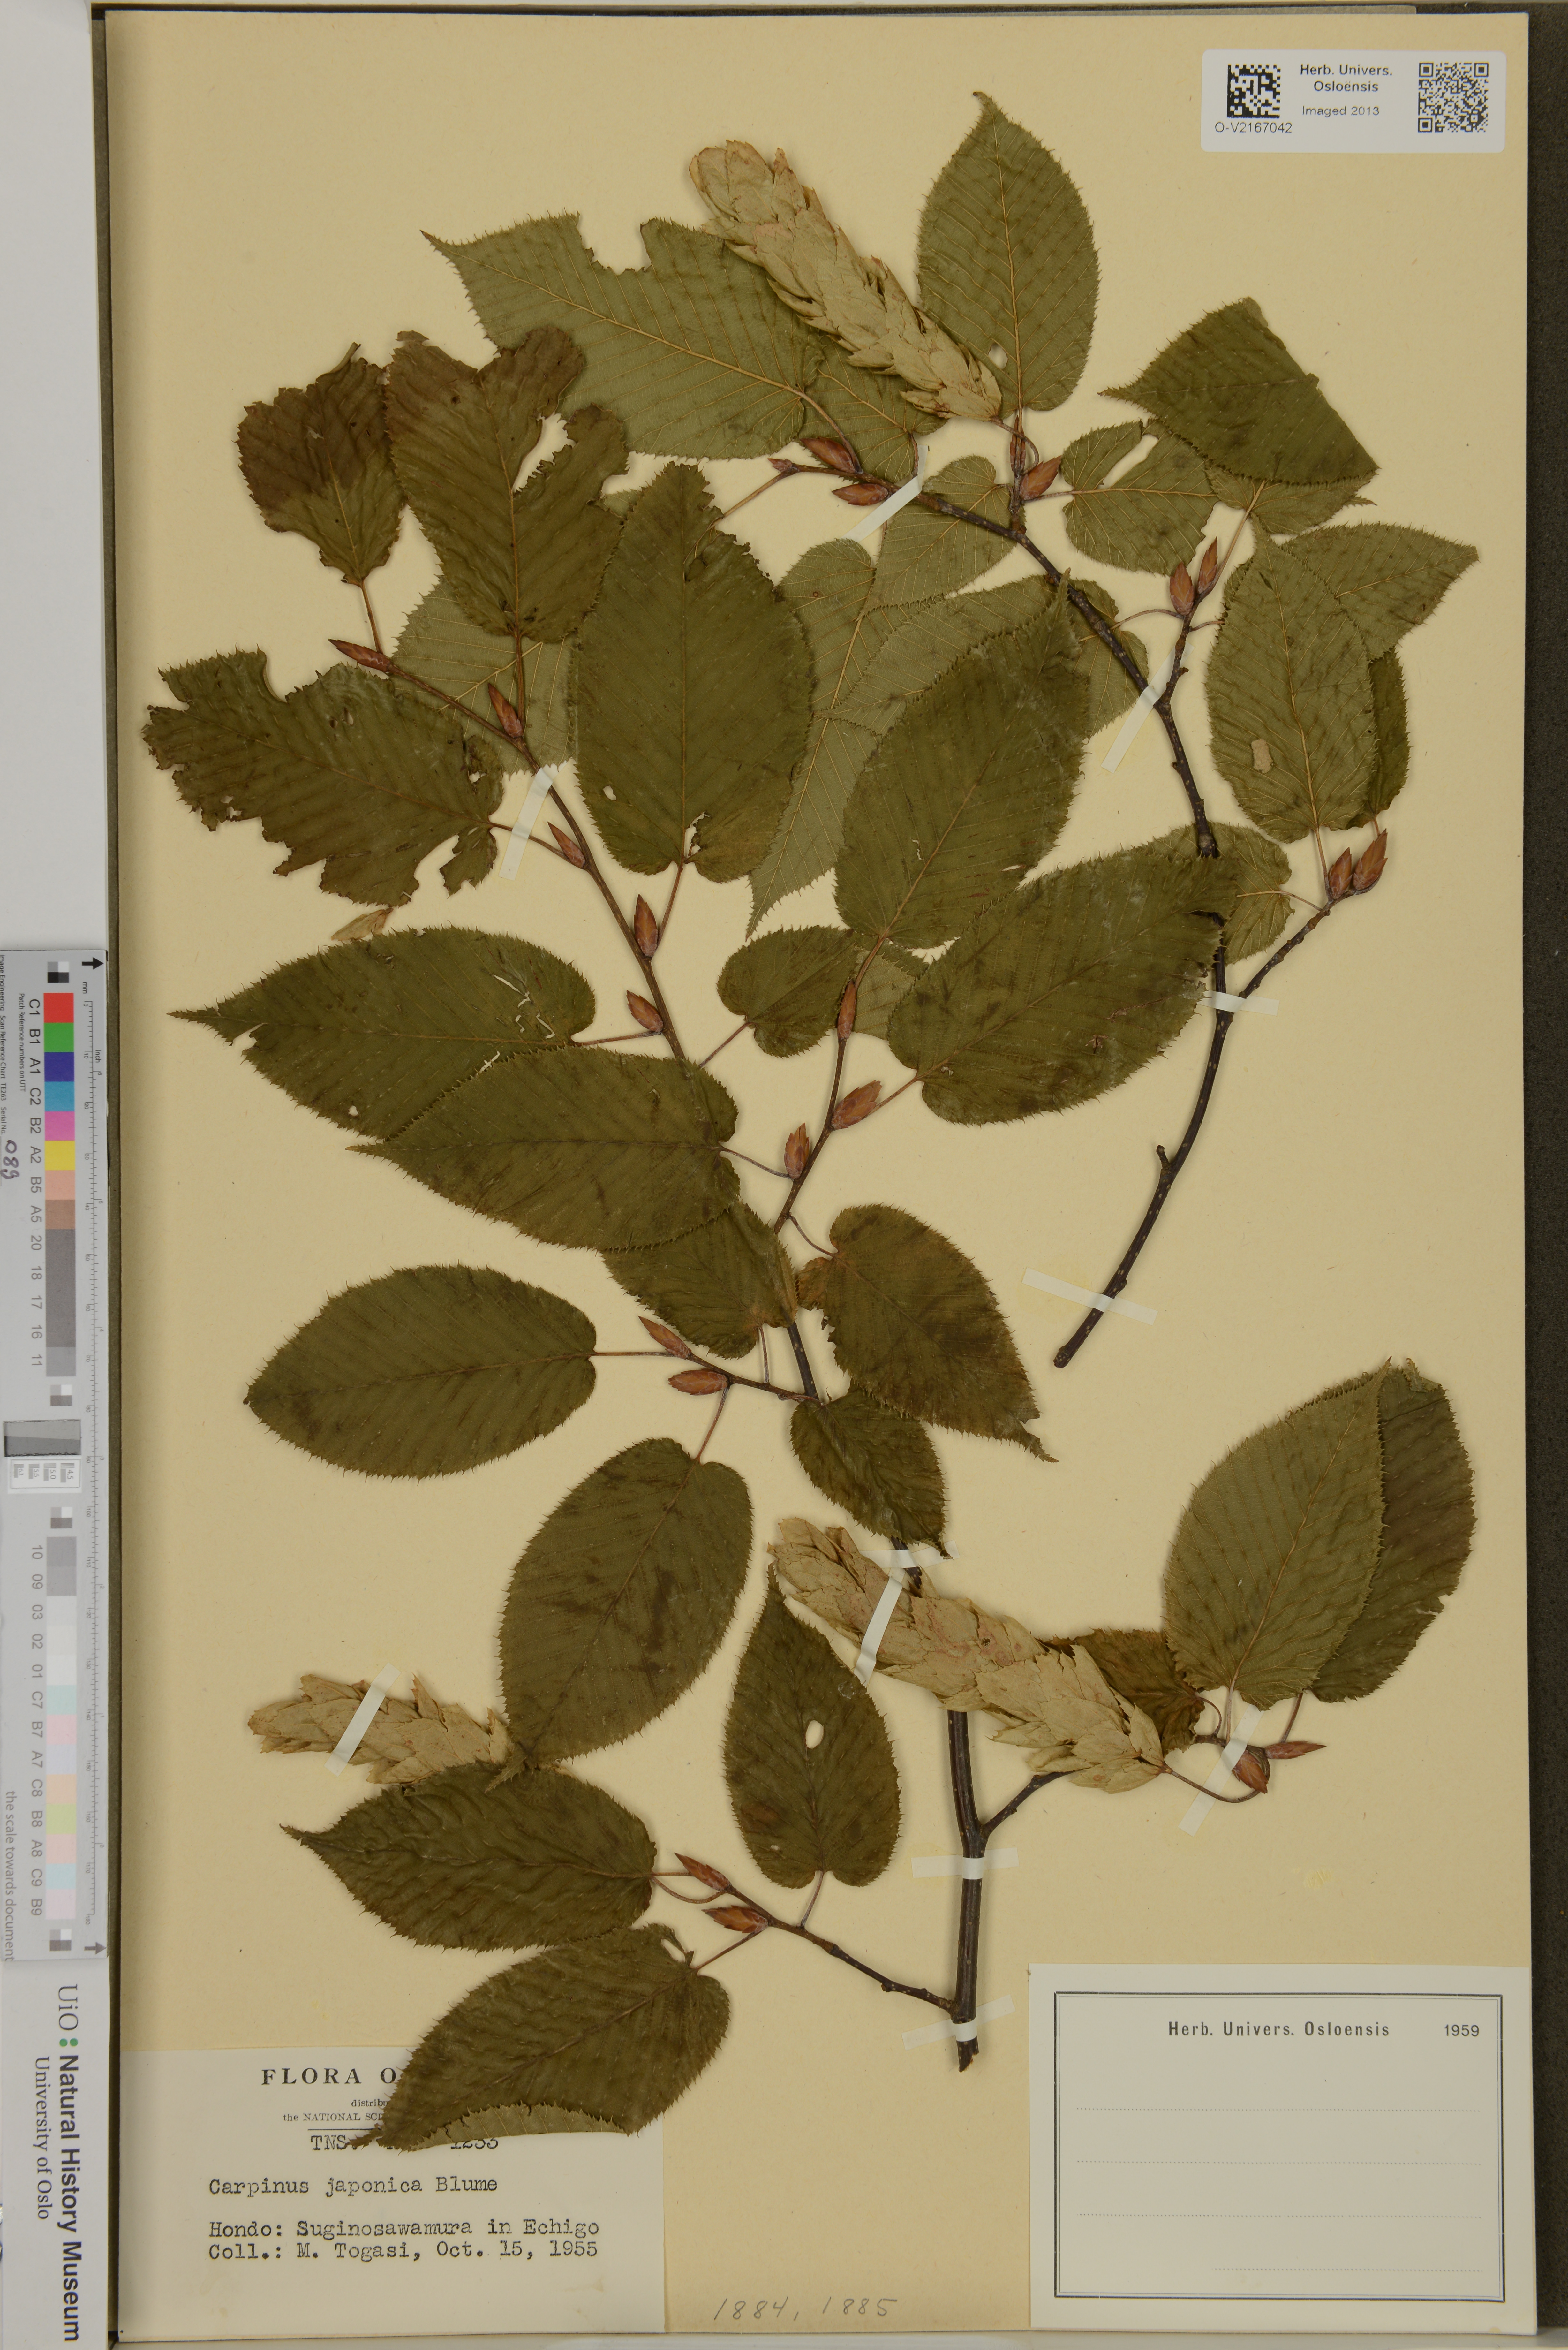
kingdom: Plantae
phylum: Tracheophyta
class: Magnoliopsida
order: Fagales
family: Betulaceae
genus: Carpinus
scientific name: Carpinus japonica
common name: Japanese hornbeam
